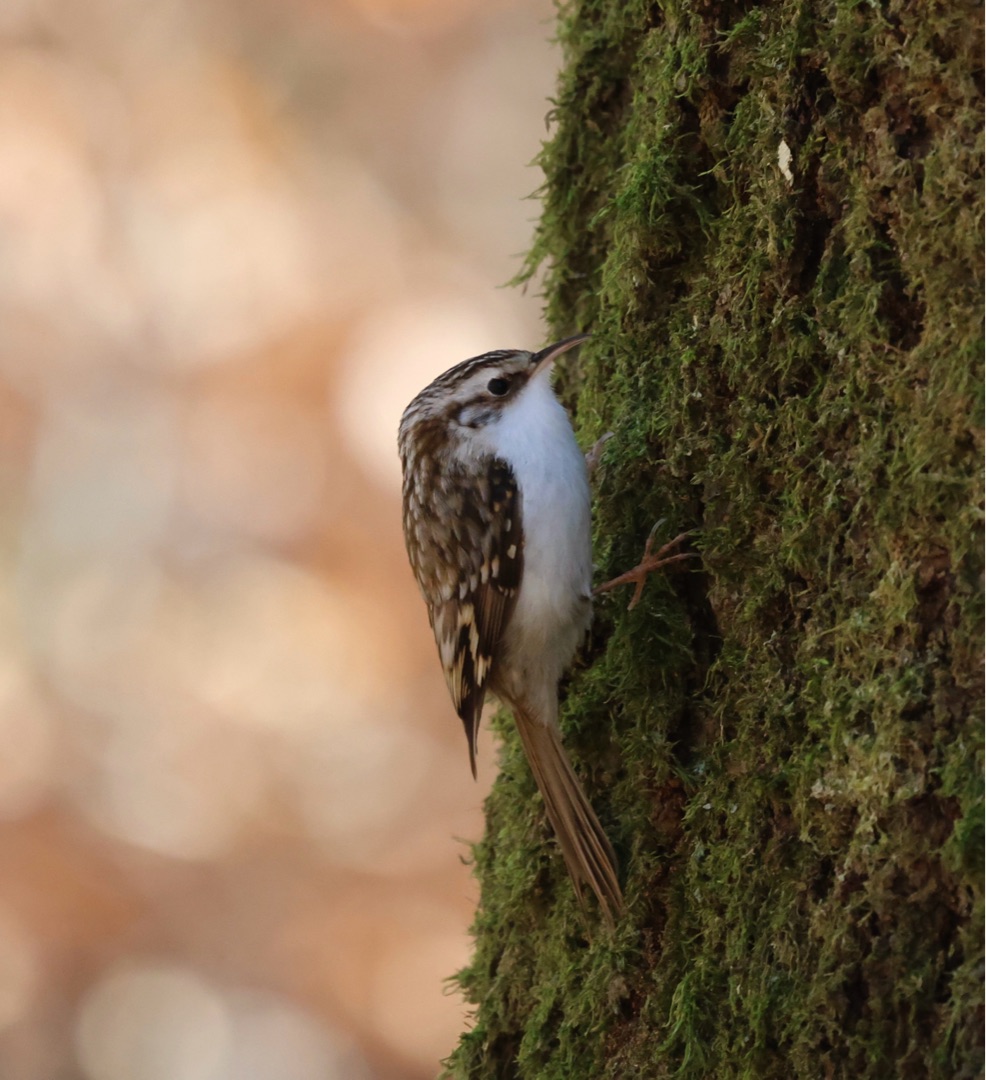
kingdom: Animalia
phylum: Chordata
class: Aves
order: Passeriformes
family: Certhiidae
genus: Certhia
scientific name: Certhia familiaris
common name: Træløber
